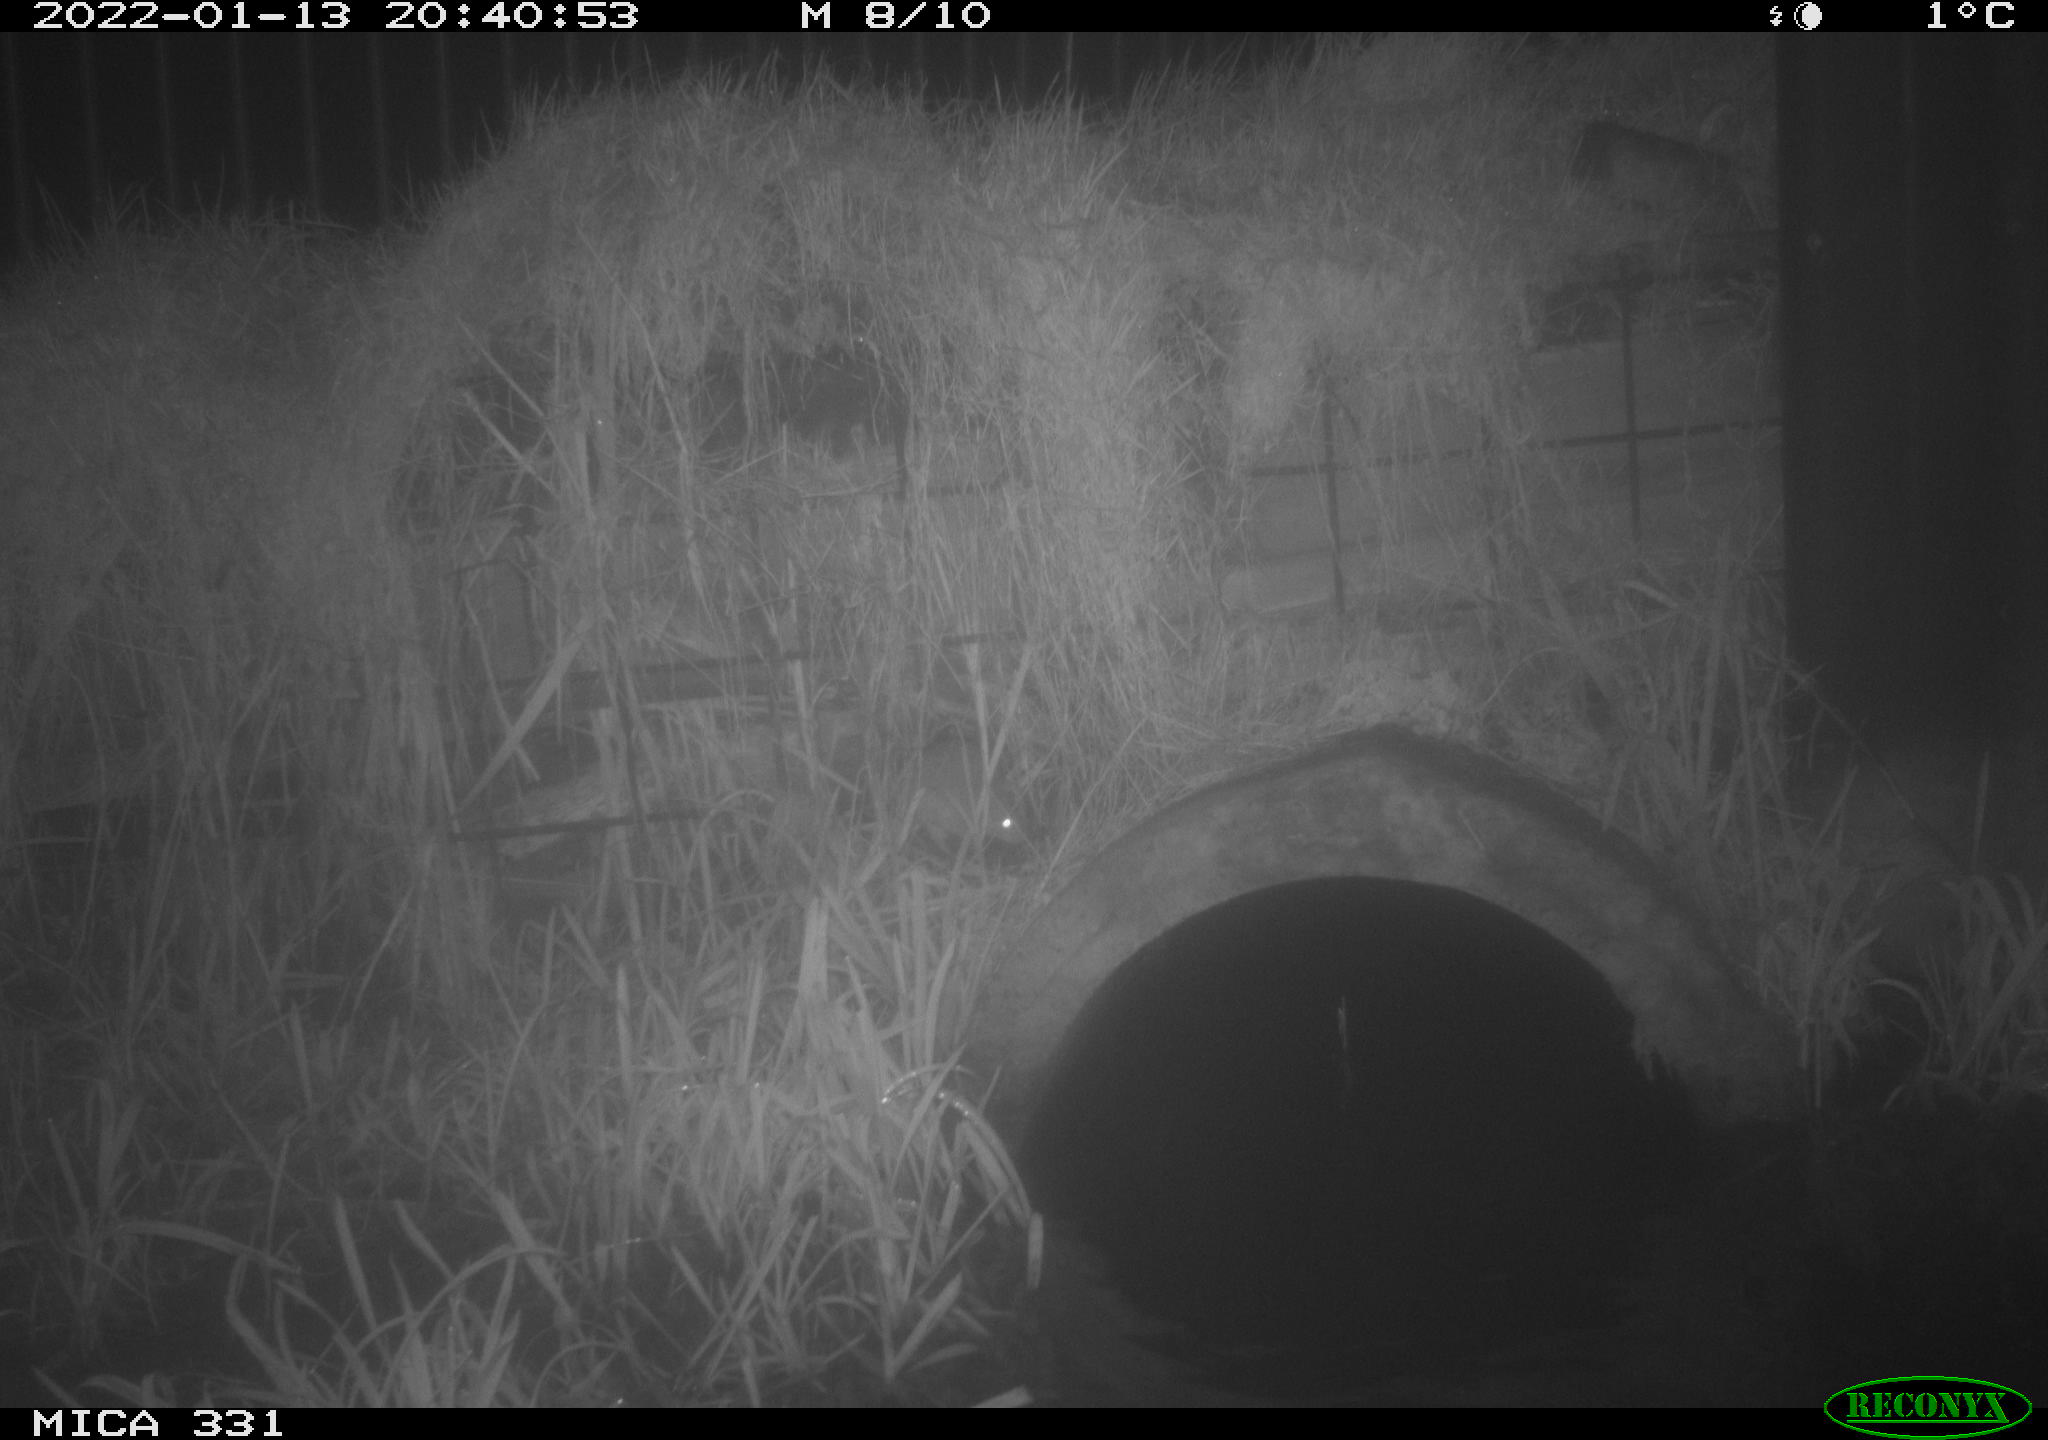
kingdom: Animalia
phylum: Chordata
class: Mammalia
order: Rodentia
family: Muridae
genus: Rattus
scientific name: Rattus norvegicus
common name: Brown rat
